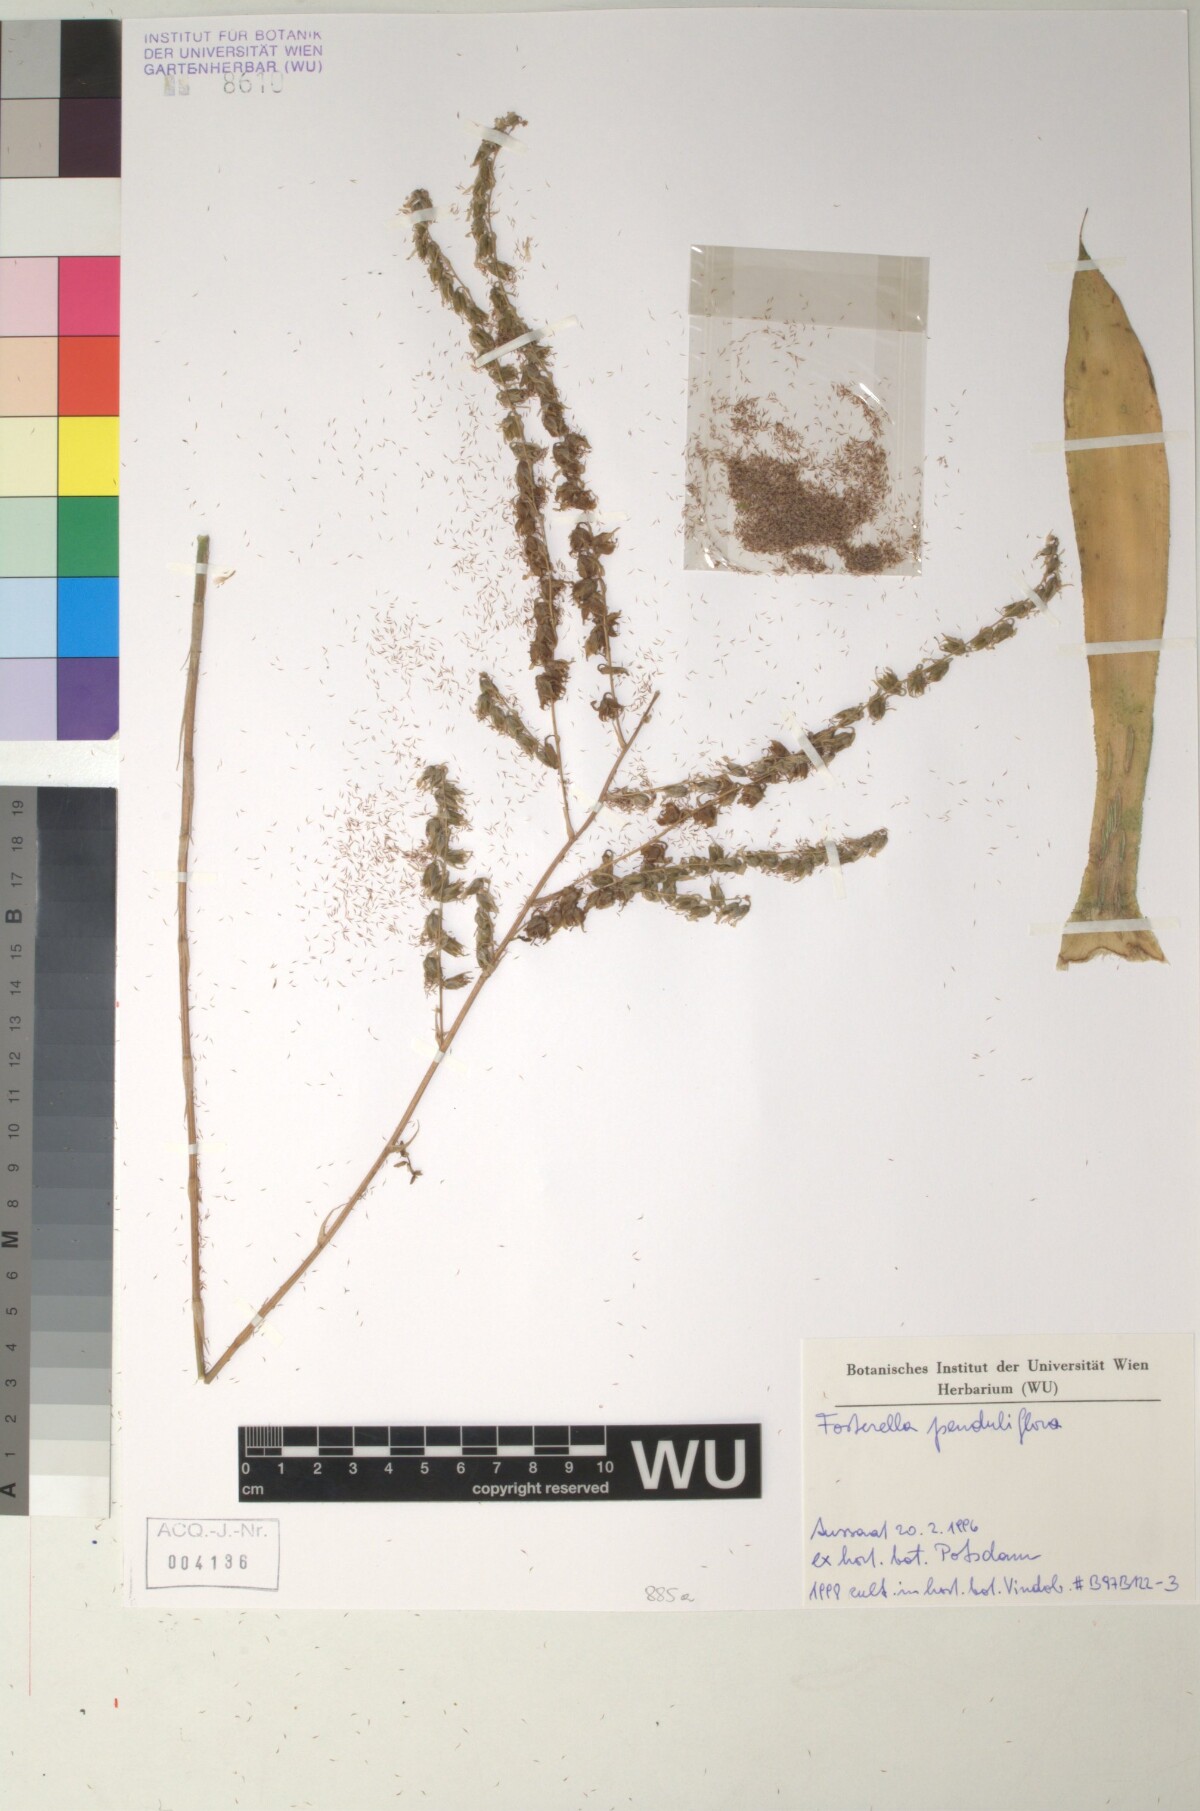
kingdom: Plantae
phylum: Tracheophyta
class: Liliopsida
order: Poales
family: Bromeliaceae
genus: Fosterella
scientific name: Fosterella penduliflora
